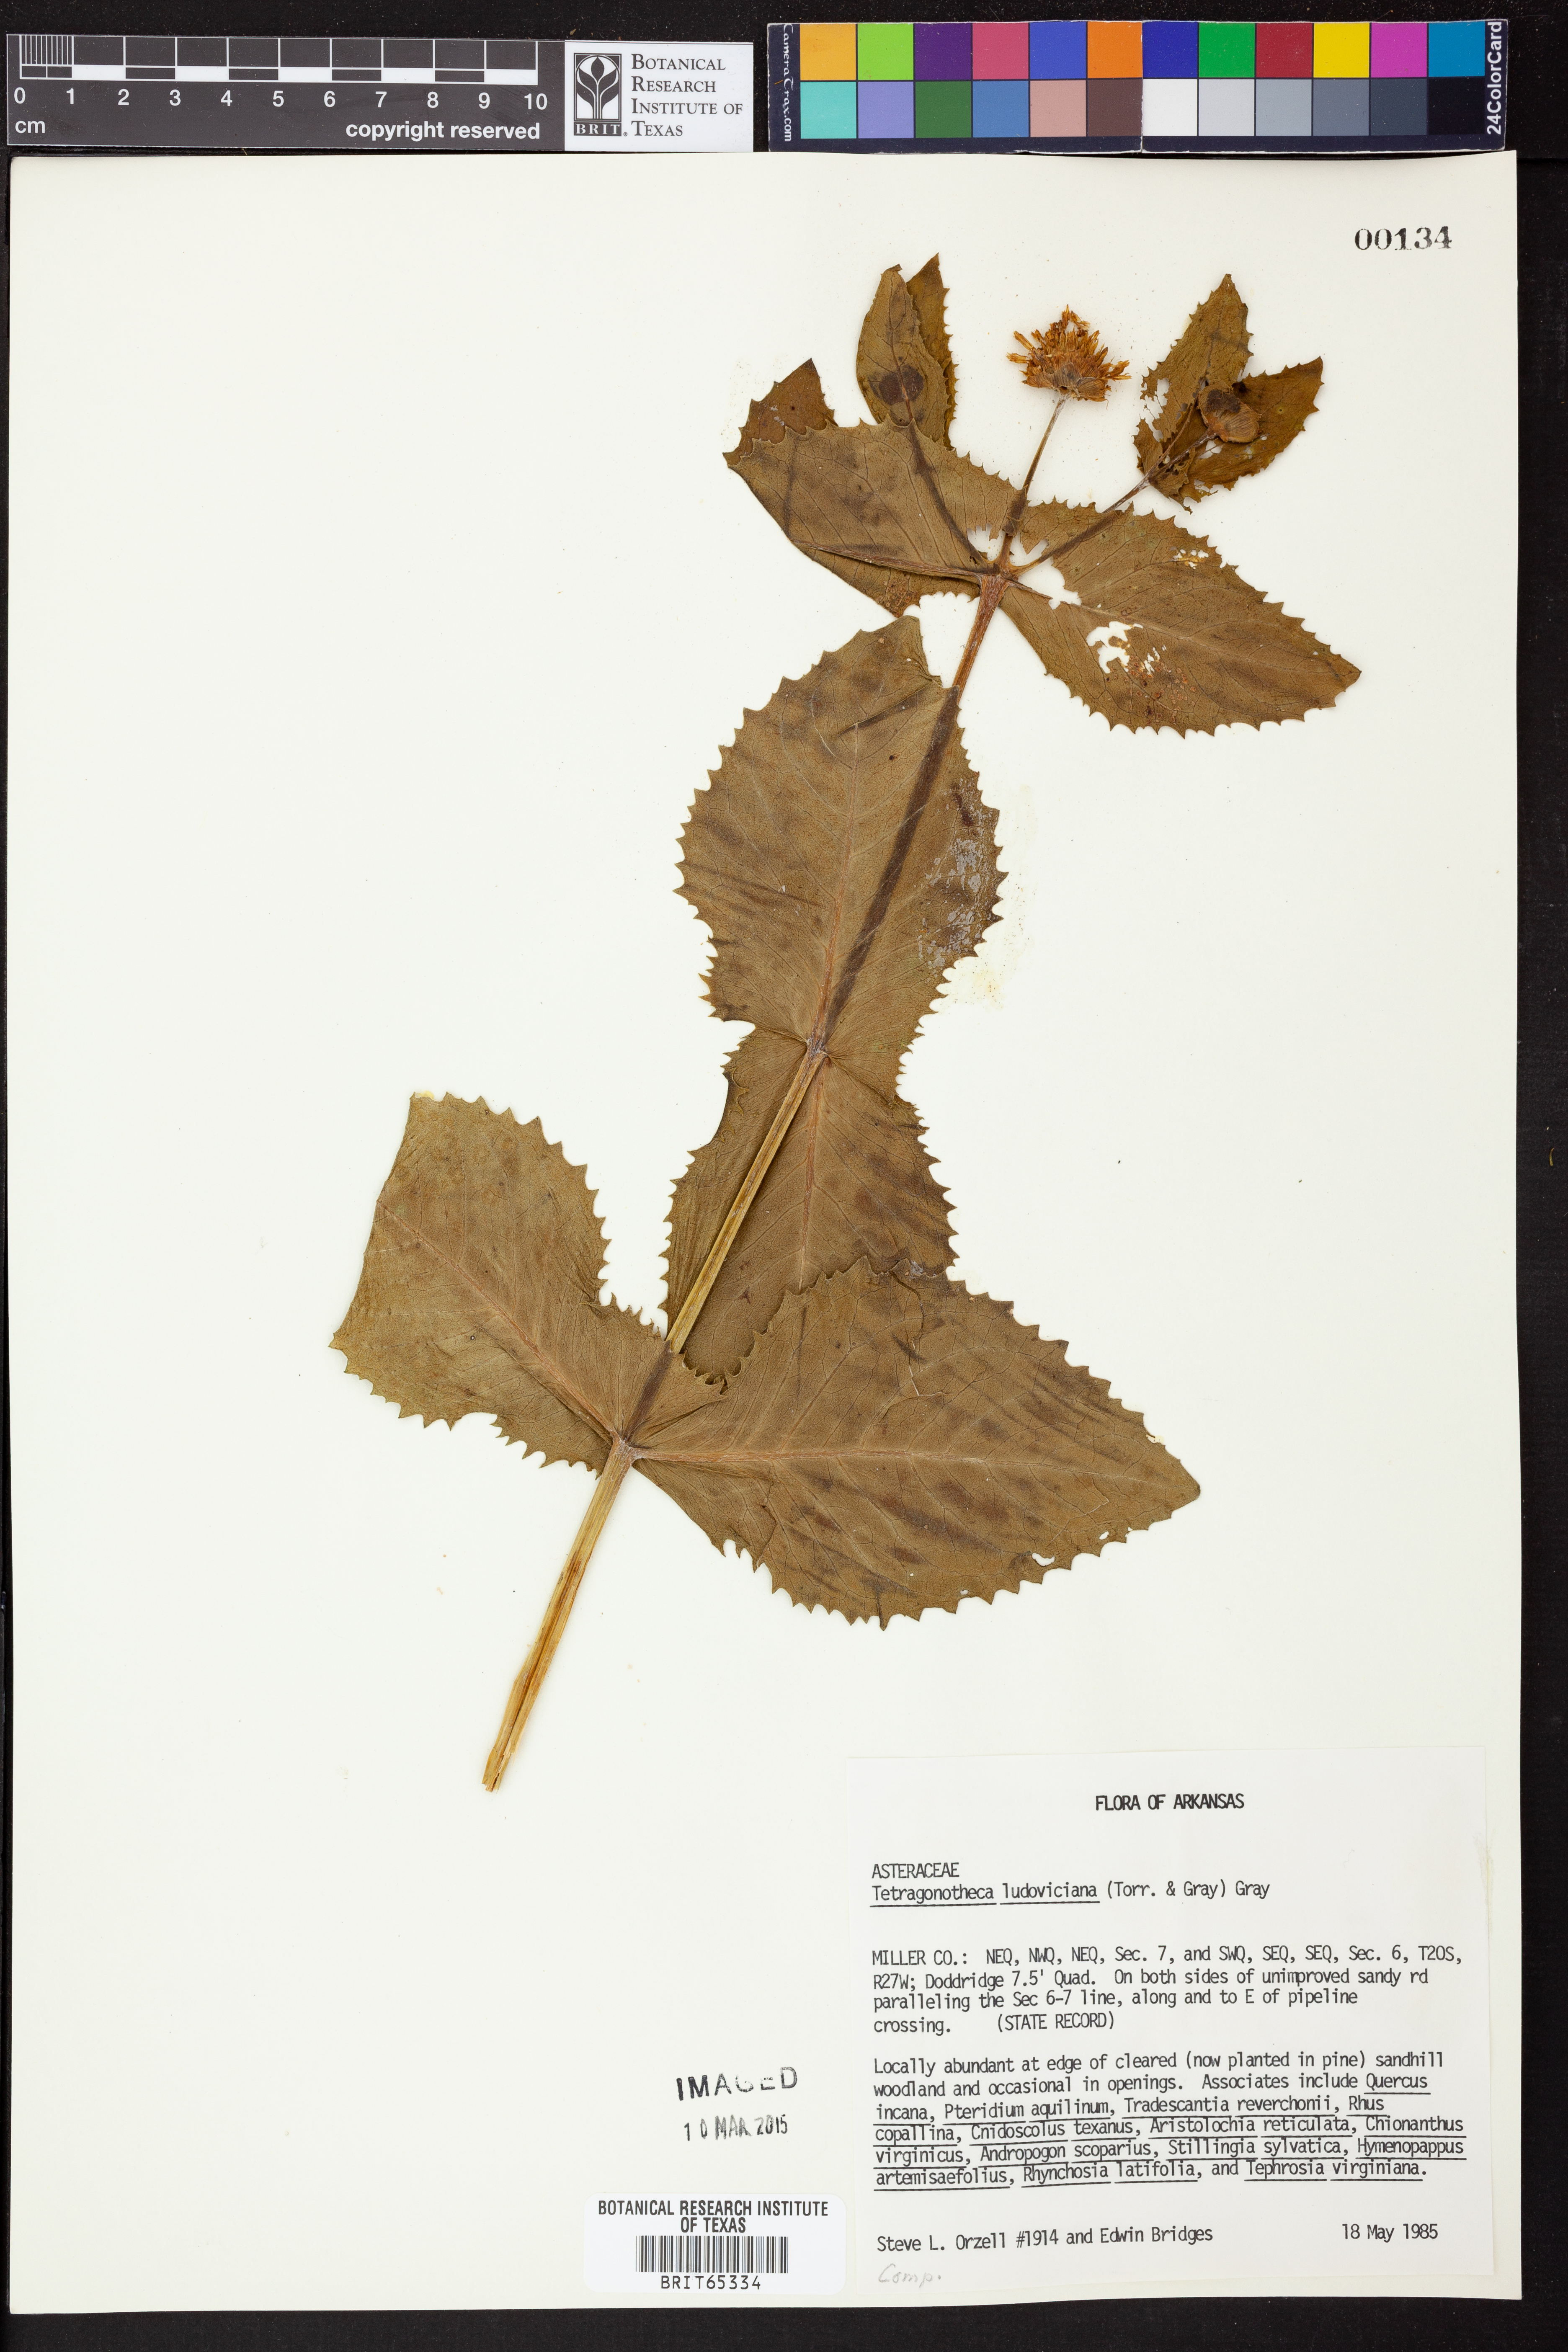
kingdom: Plantae
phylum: Tracheophyta
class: Magnoliopsida
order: Asterales
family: Asteraceae
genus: Tetragonotheca
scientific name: Tetragonotheca
